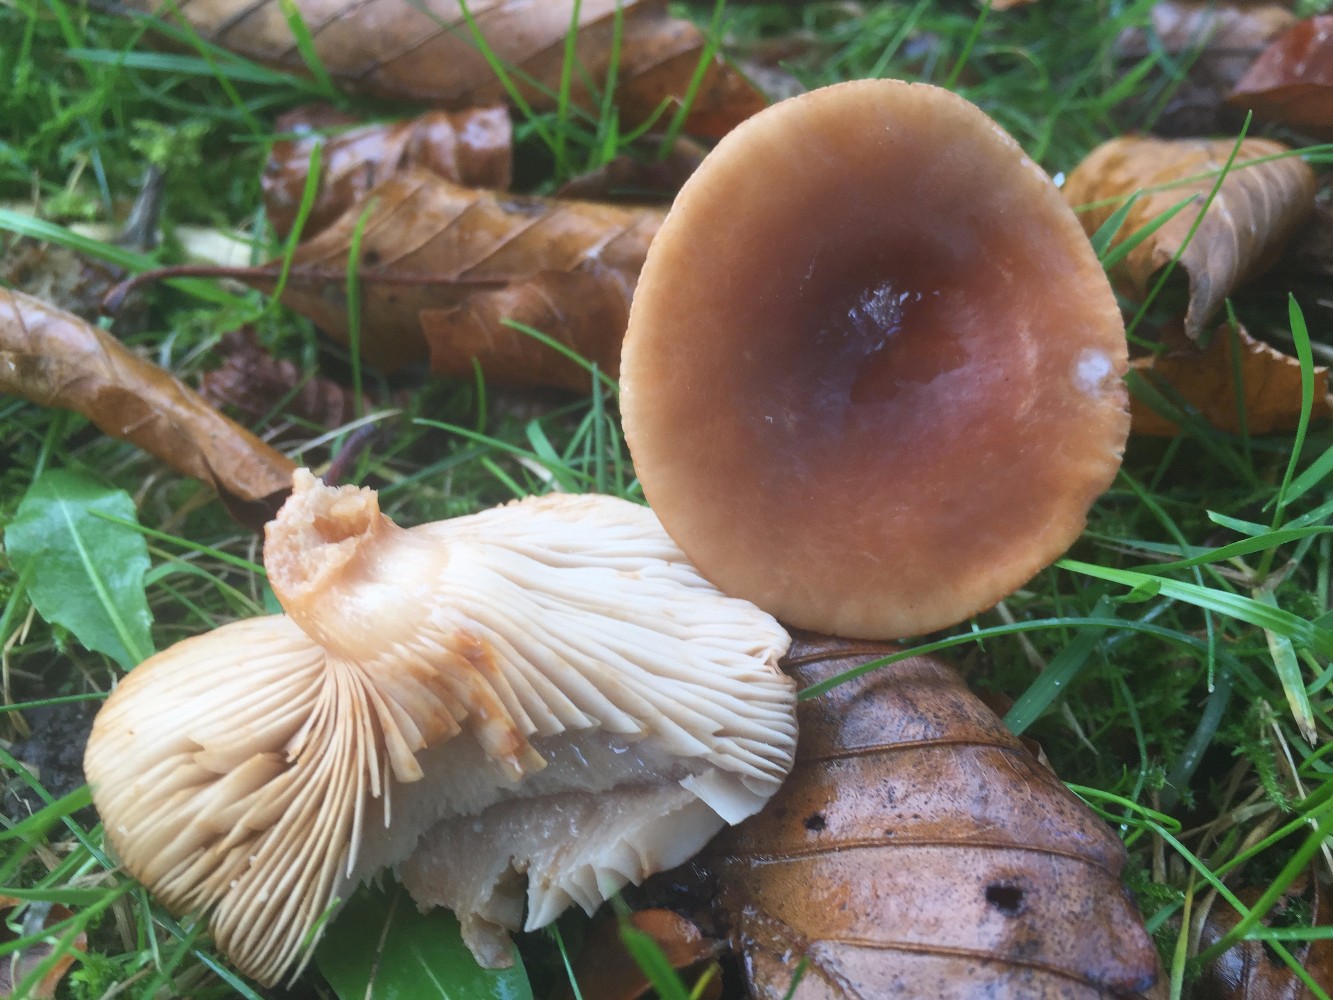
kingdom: Fungi
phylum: Basidiomycota
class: Agaricomycetes
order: Russulales
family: Russulaceae
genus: Lactarius
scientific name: Lactarius subdulcis
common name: sødlig mælkehat
